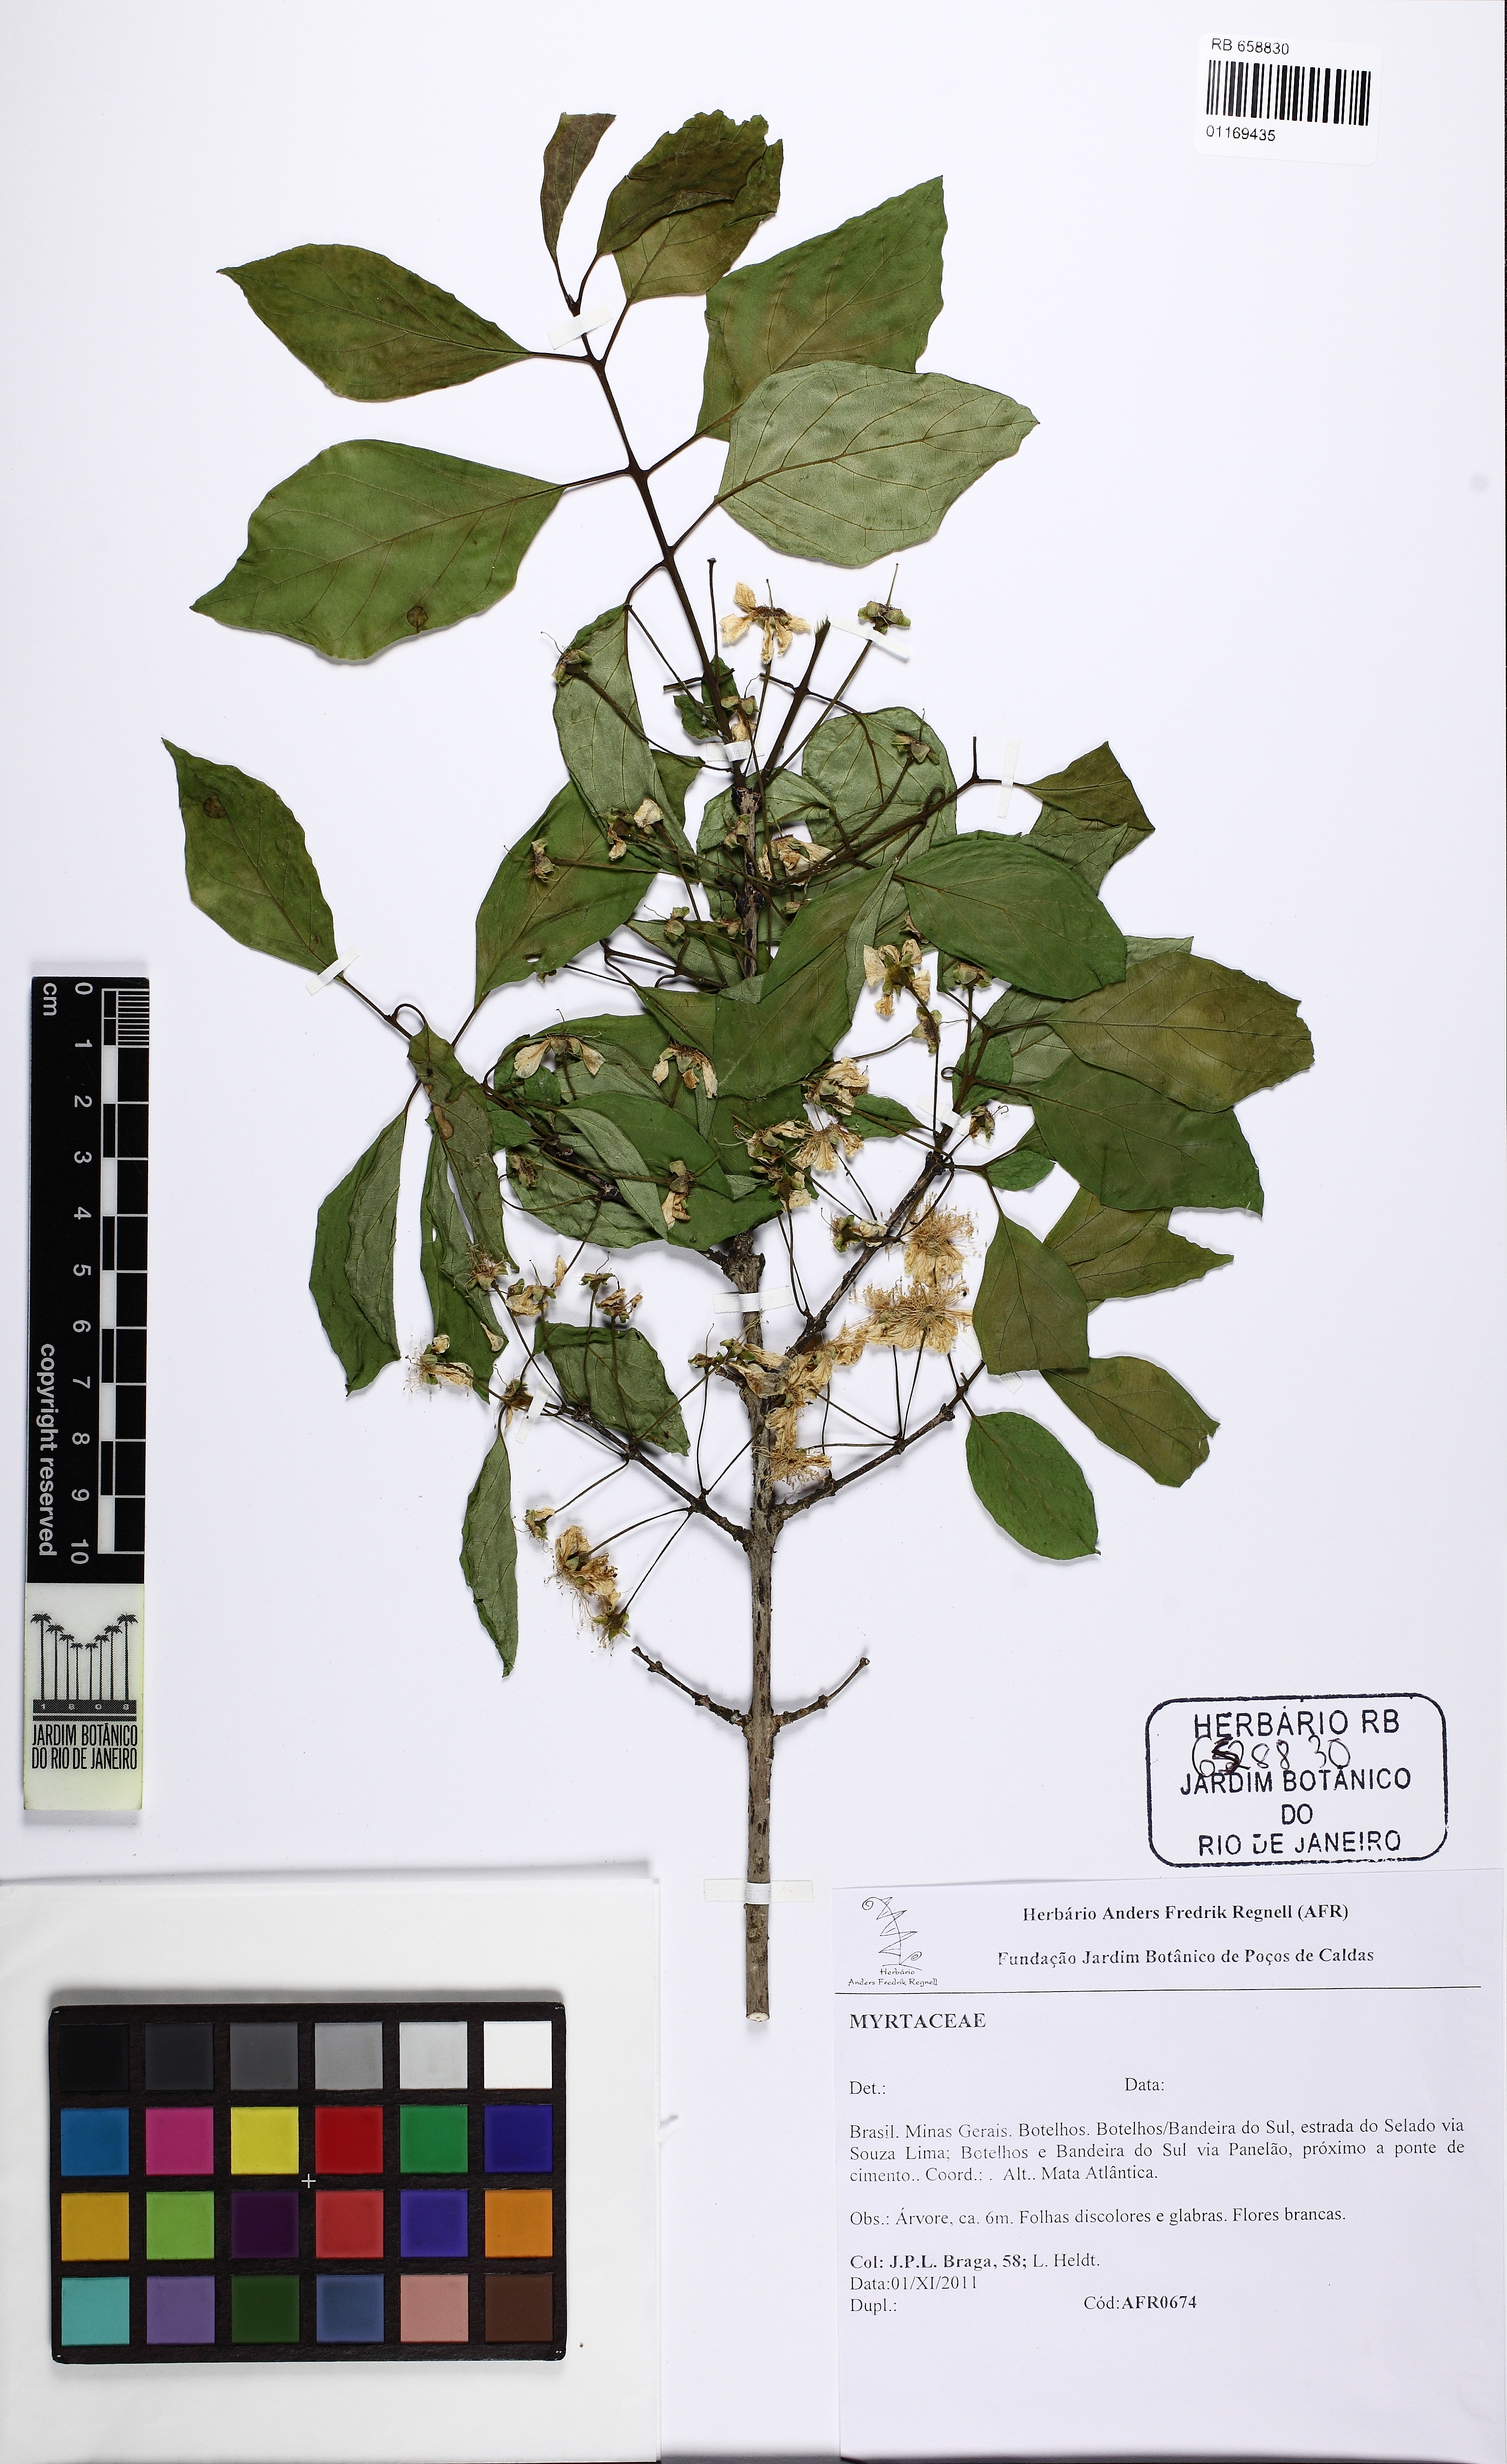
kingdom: Plantae
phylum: Tracheophyta
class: Magnoliopsida
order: Myrtales
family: Myrtaceae
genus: Campomanesia
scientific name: Campomanesia xanthocarpa
